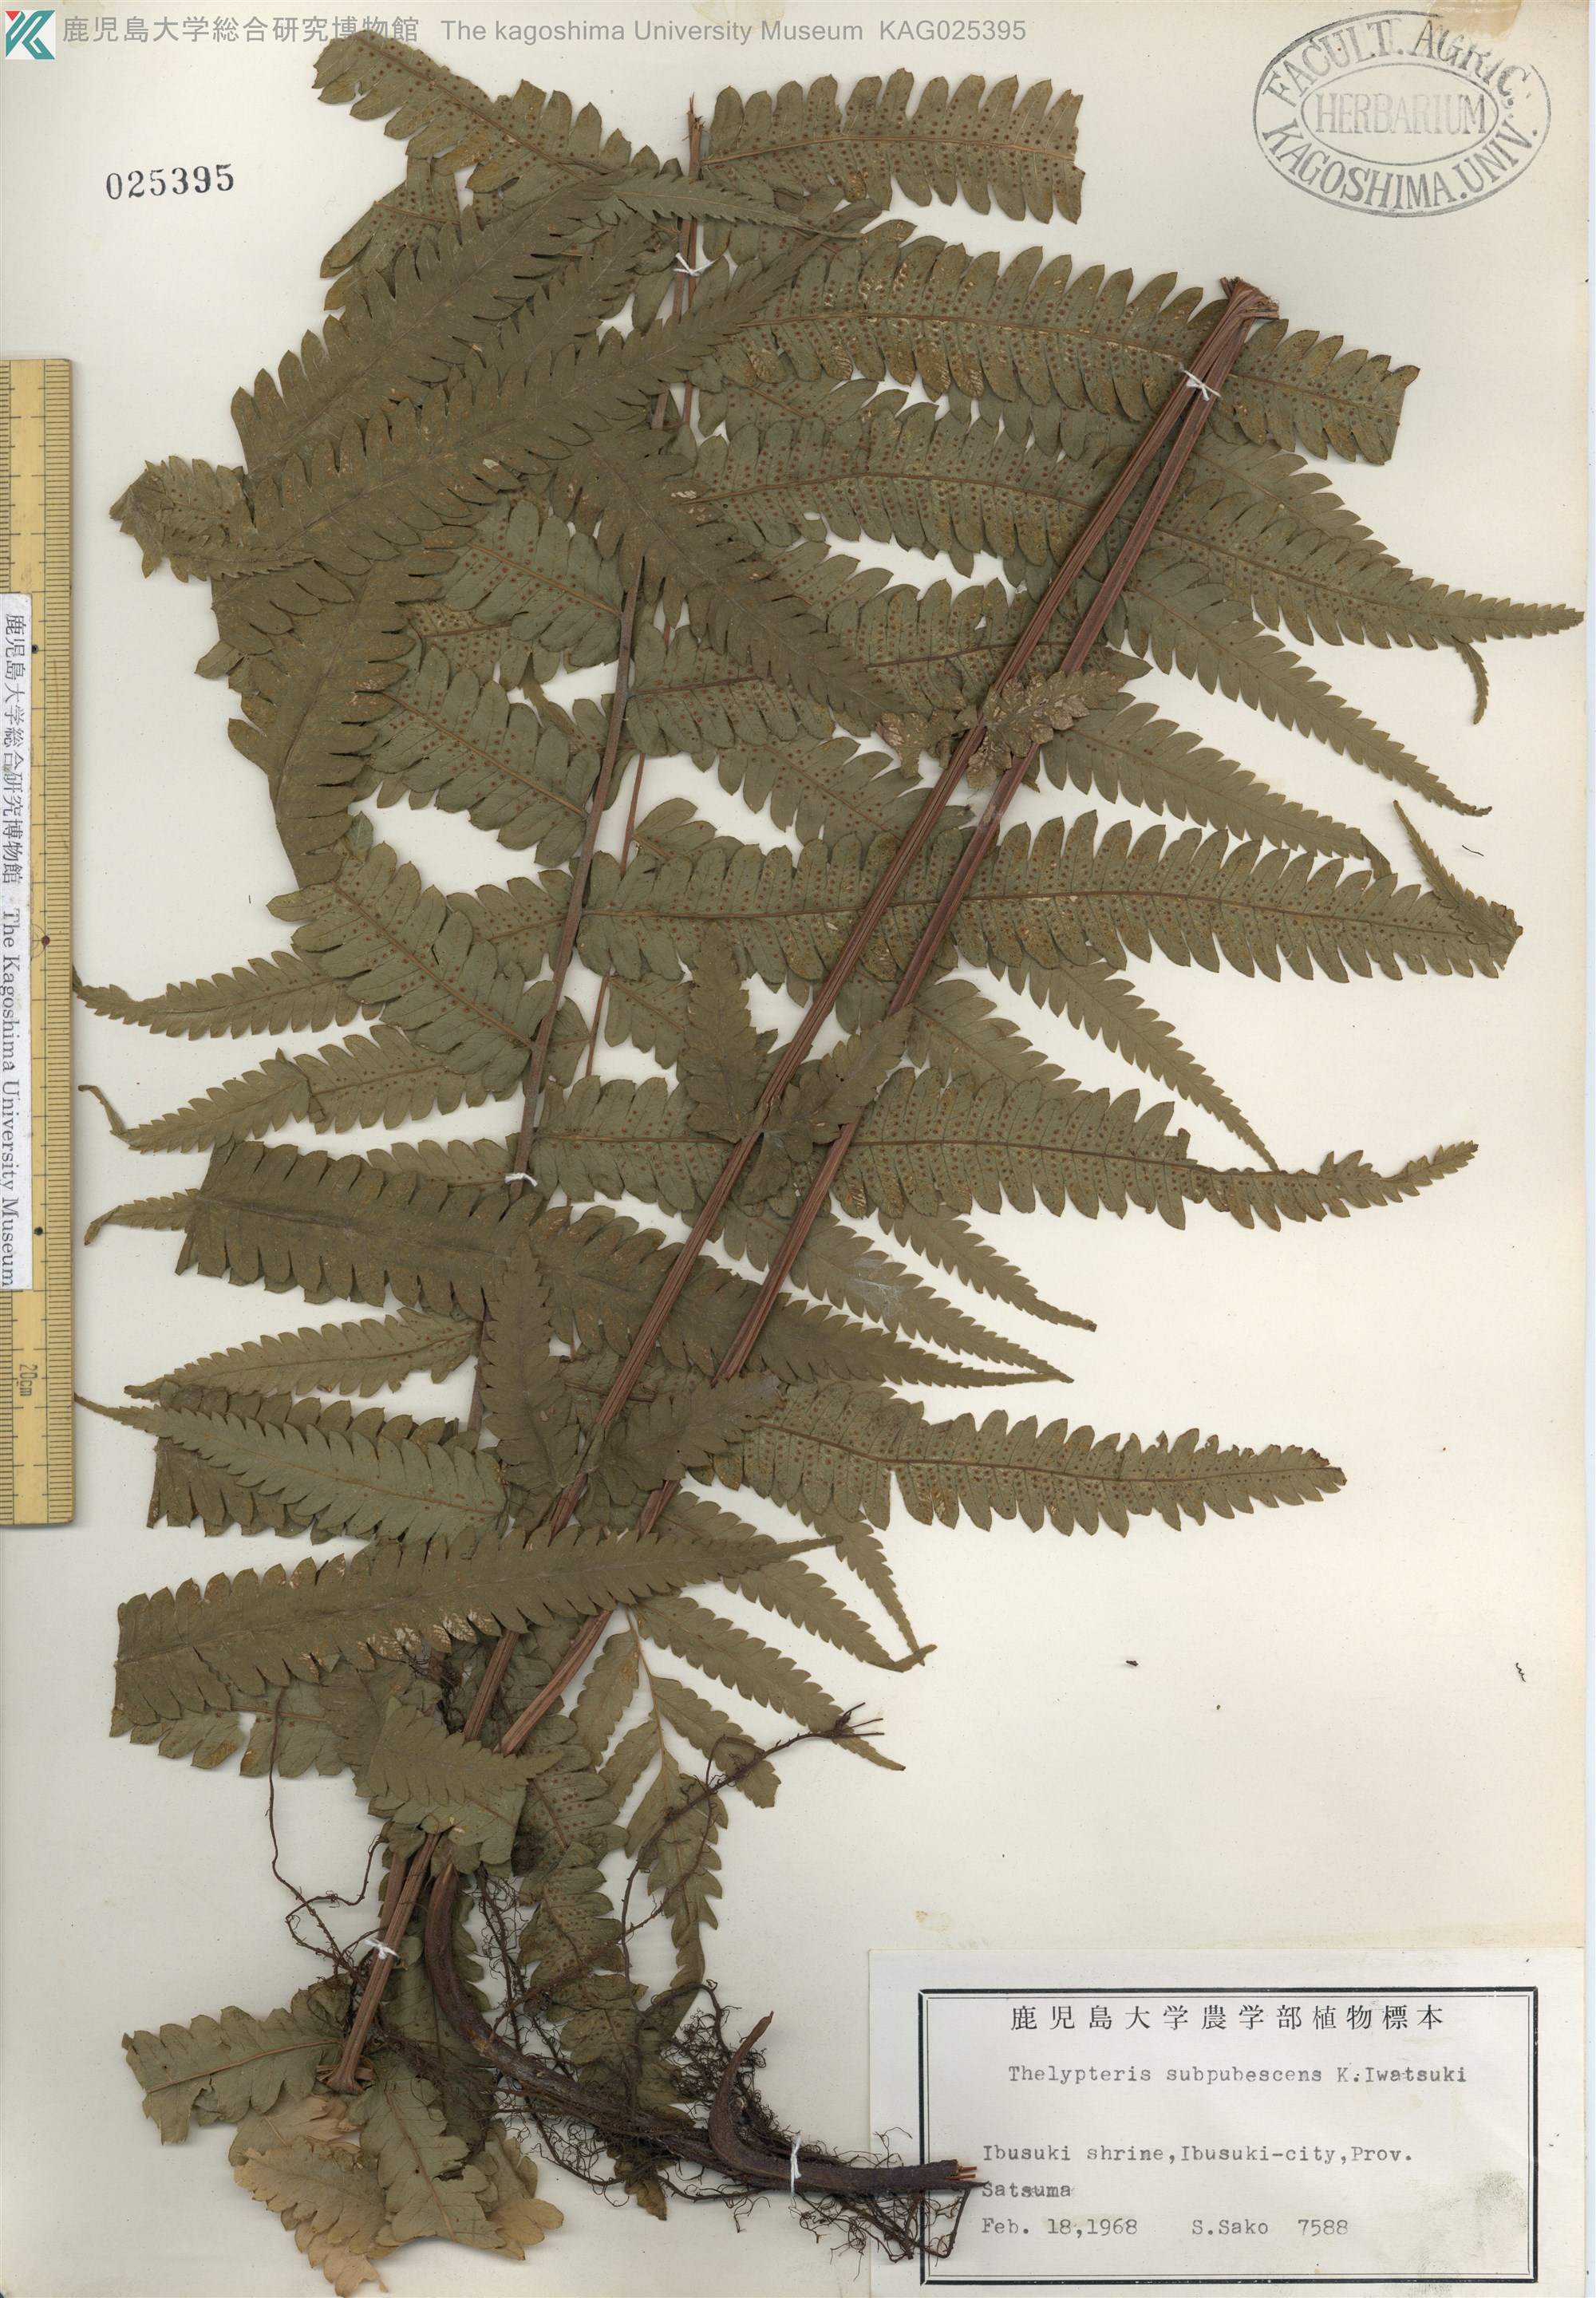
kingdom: Plantae
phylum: Tracheophyta
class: Polypodiopsida
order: Polypodiales
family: Thelypteridaceae
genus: Christella
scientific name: Christella acuminata
